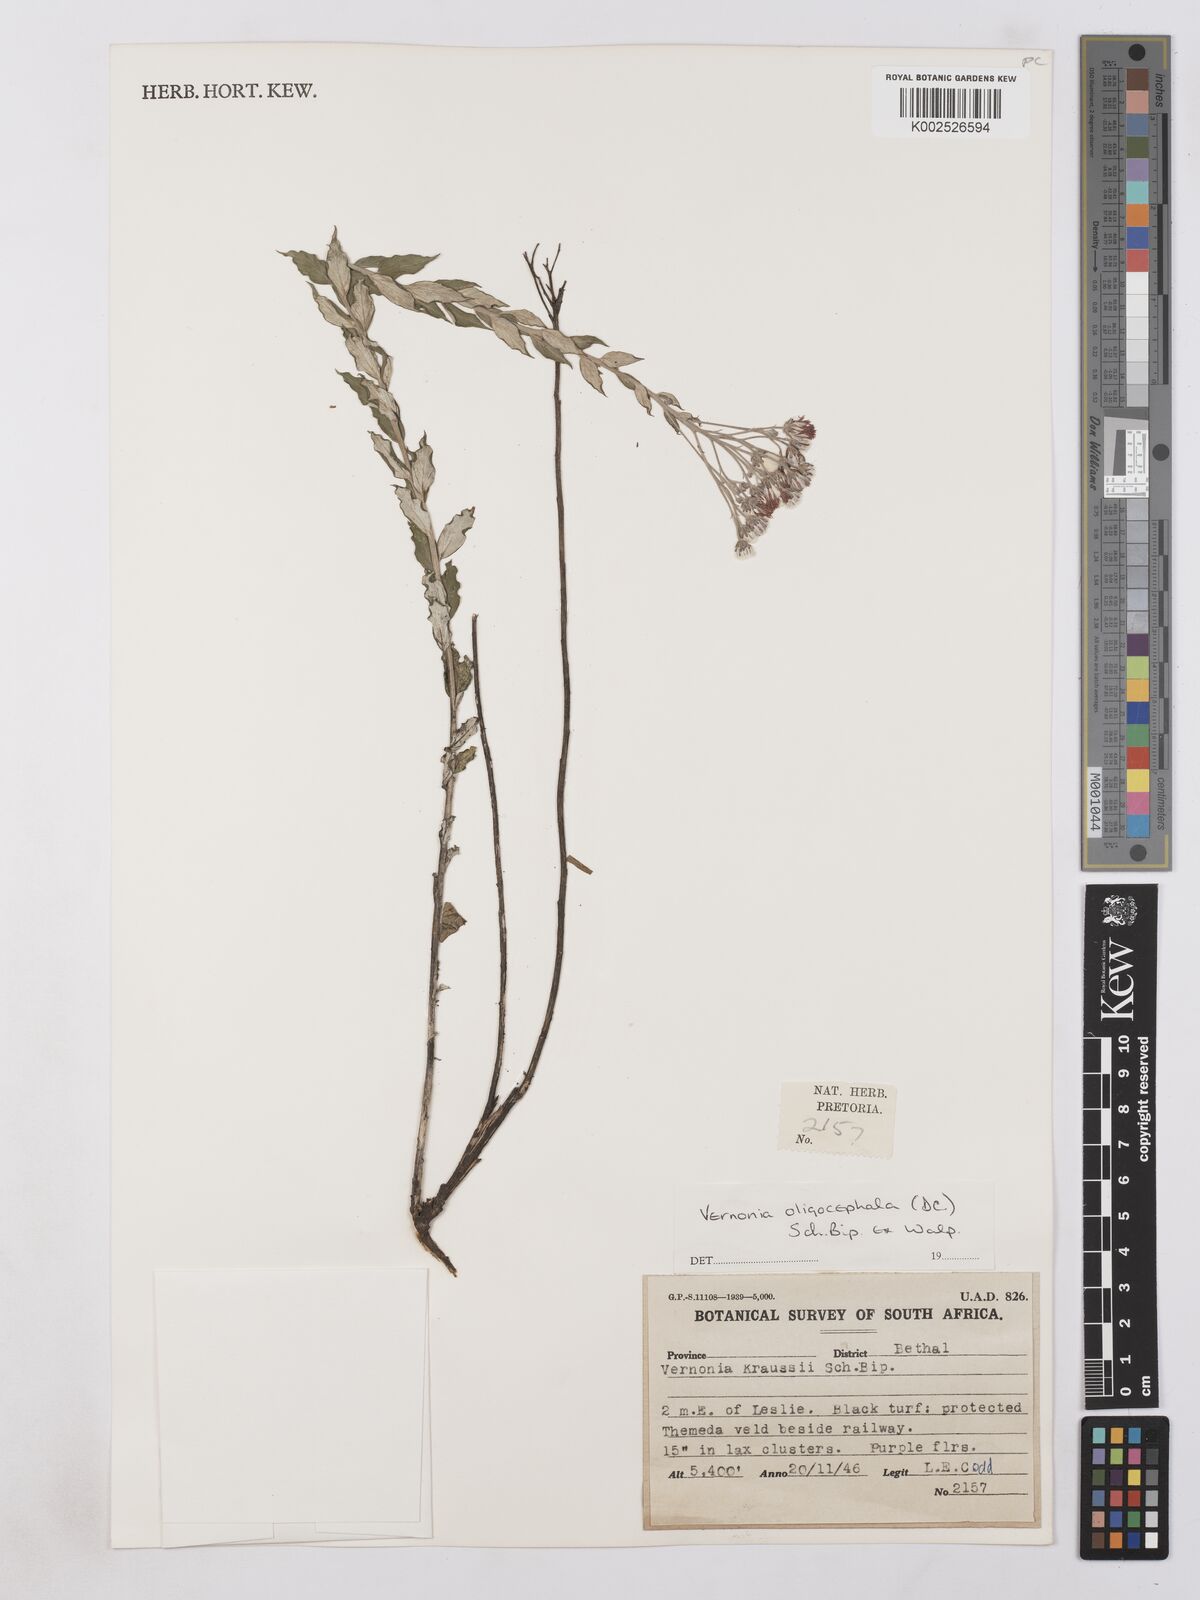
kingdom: Plantae
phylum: Tracheophyta
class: Magnoliopsida
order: Asterales
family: Asteraceae
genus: Lepidaploa
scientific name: Lepidaploa aurea
